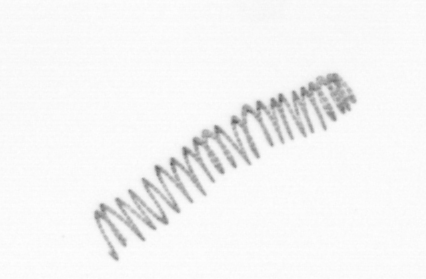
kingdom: Chromista
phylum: Ochrophyta
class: Bacillariophyceae
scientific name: Bacillariophyceae
